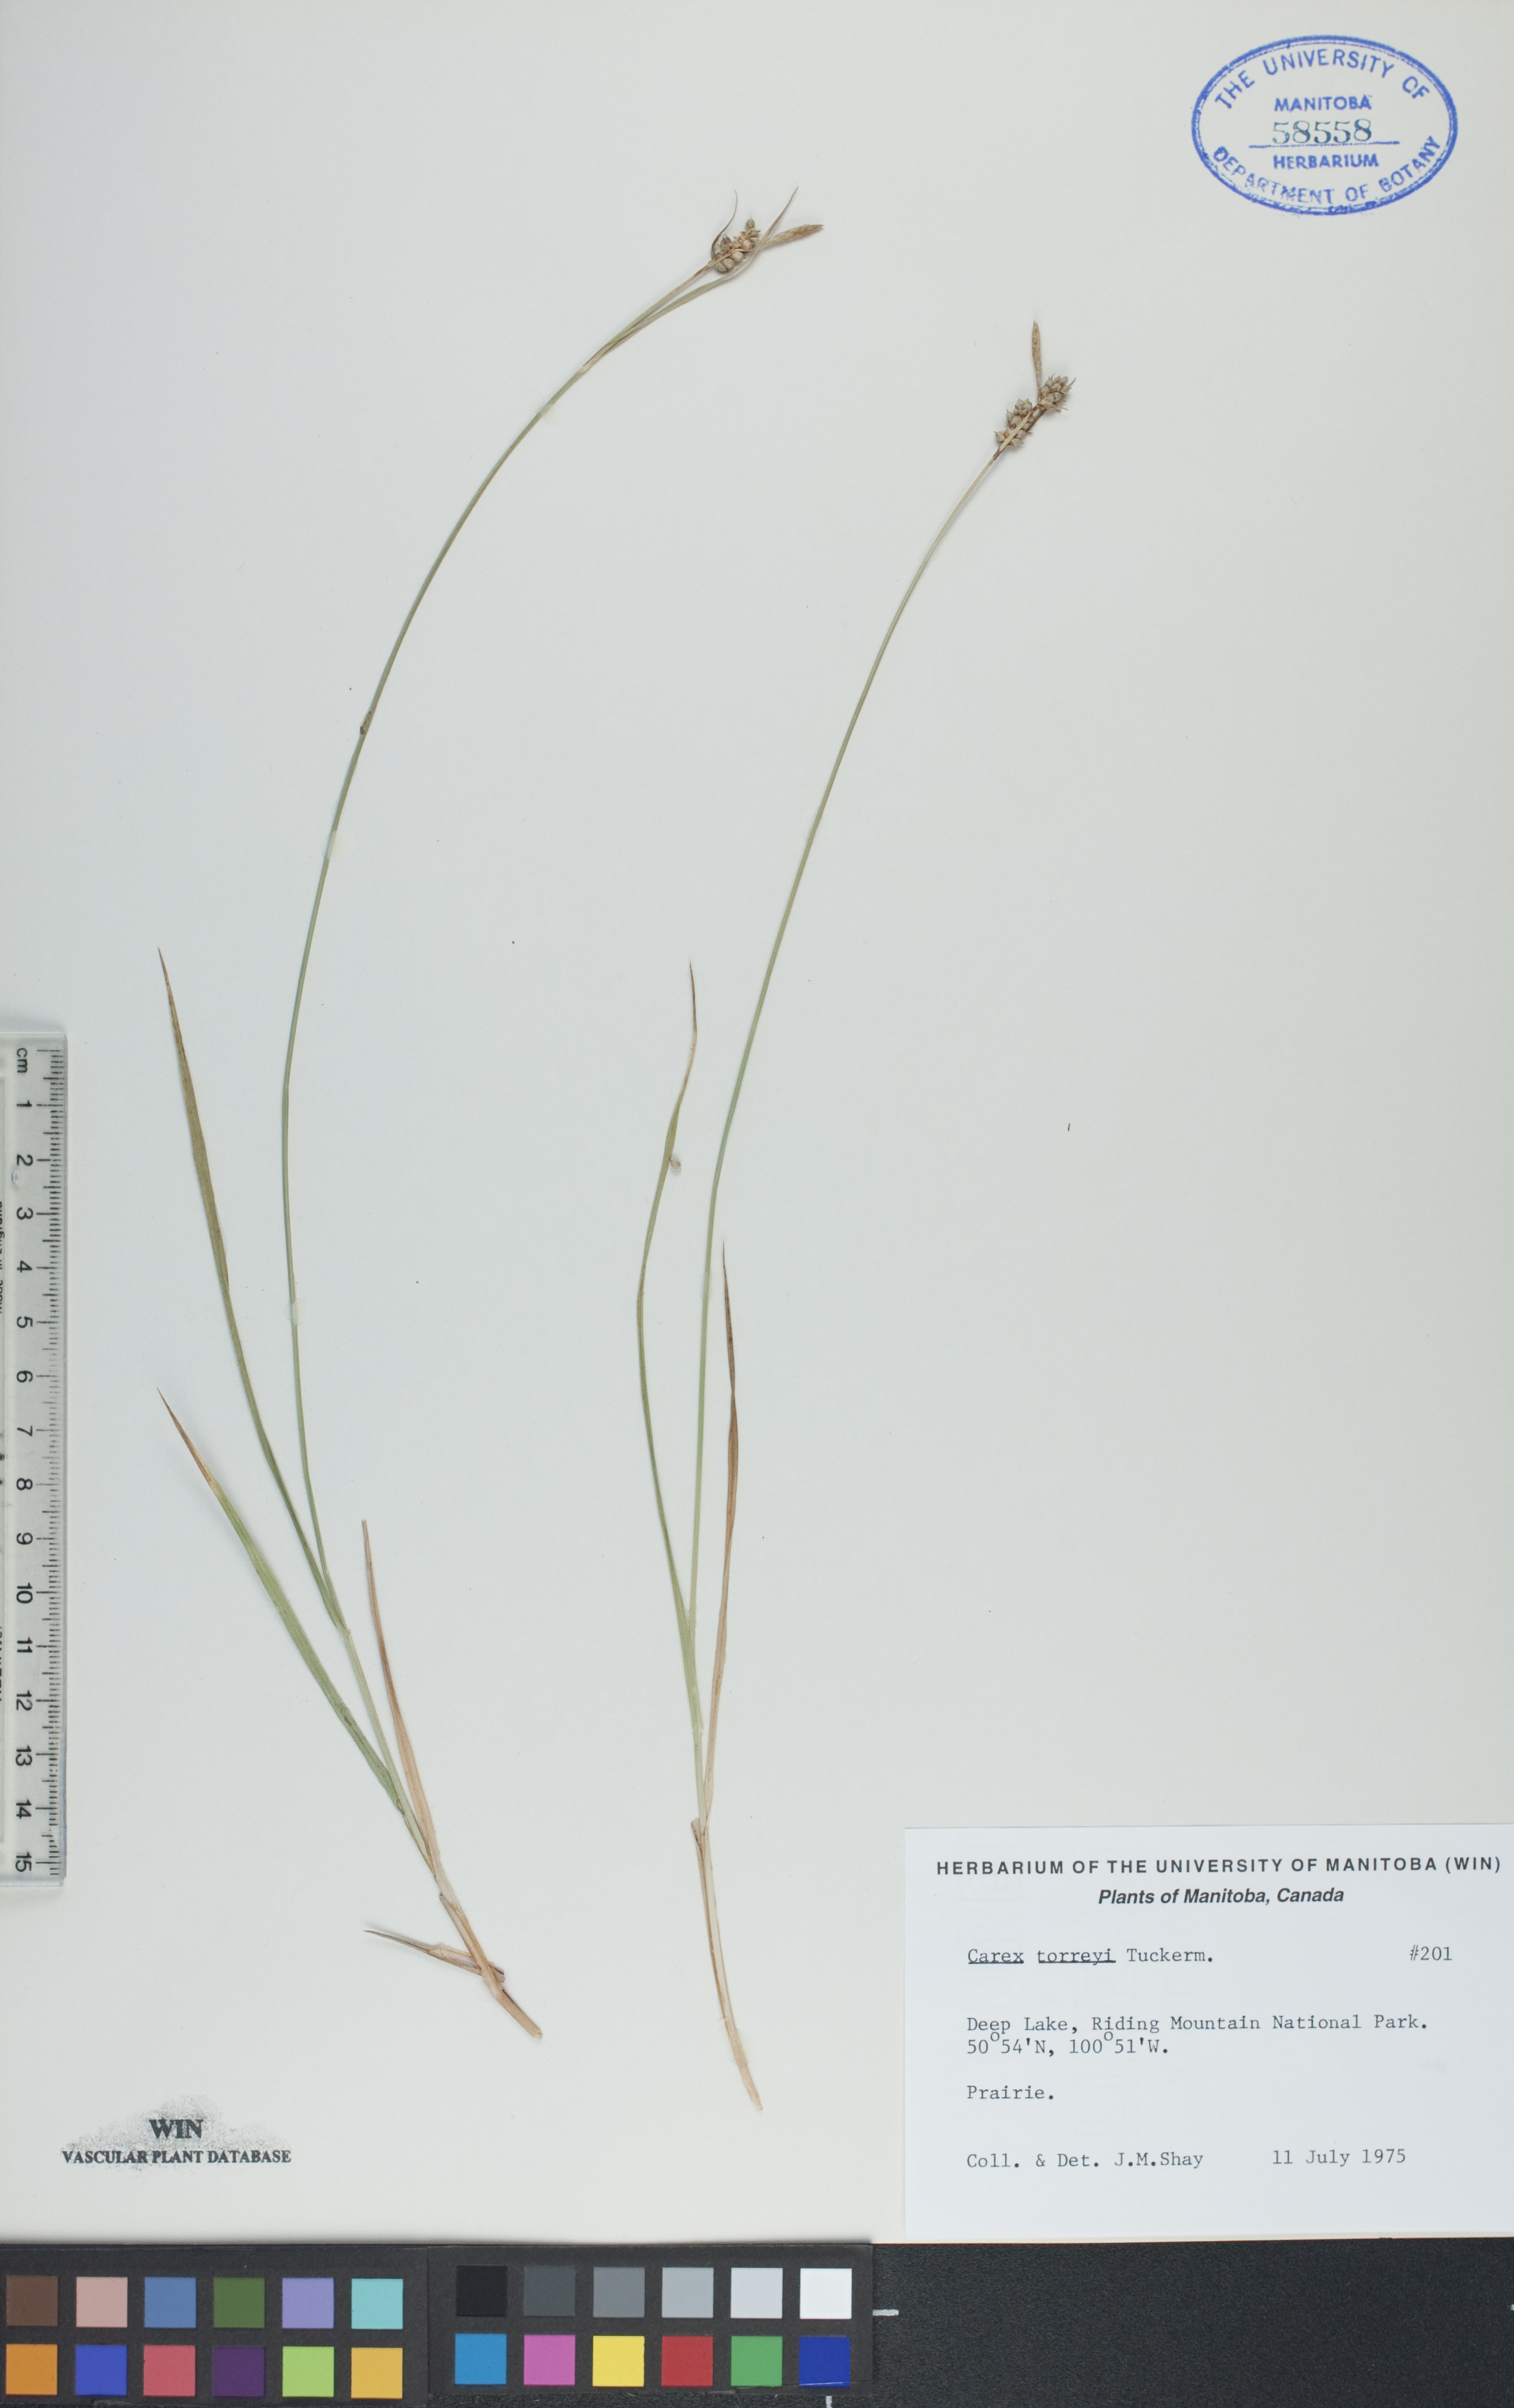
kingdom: Plantae
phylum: Tracheophyta
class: Liliopsida
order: Poales
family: Cyperaceae
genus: Carex
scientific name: Carex torreyi
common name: Torrey's sedge
